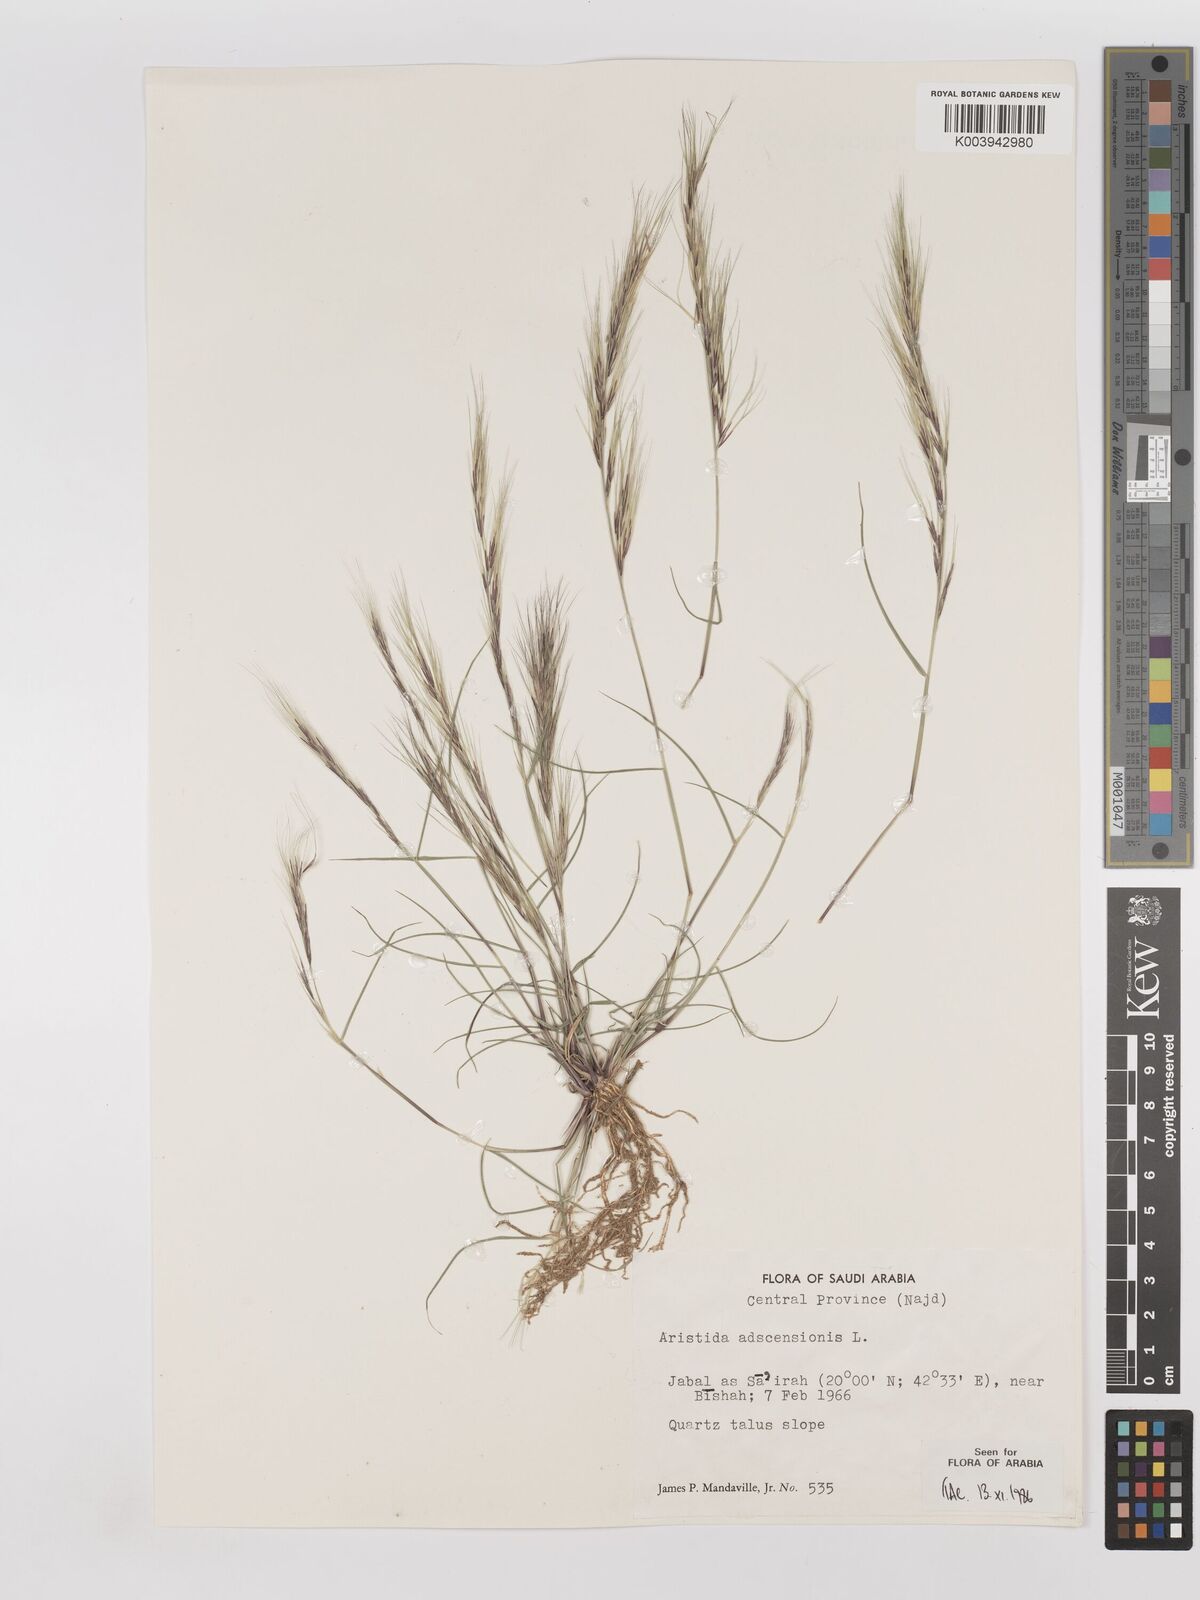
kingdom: Plantae
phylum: Tracheophyta
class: Liliopsida
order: Poales
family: Poaceae
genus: Aristida
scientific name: Aristida adscensionis
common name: Sixweeks threeawn
